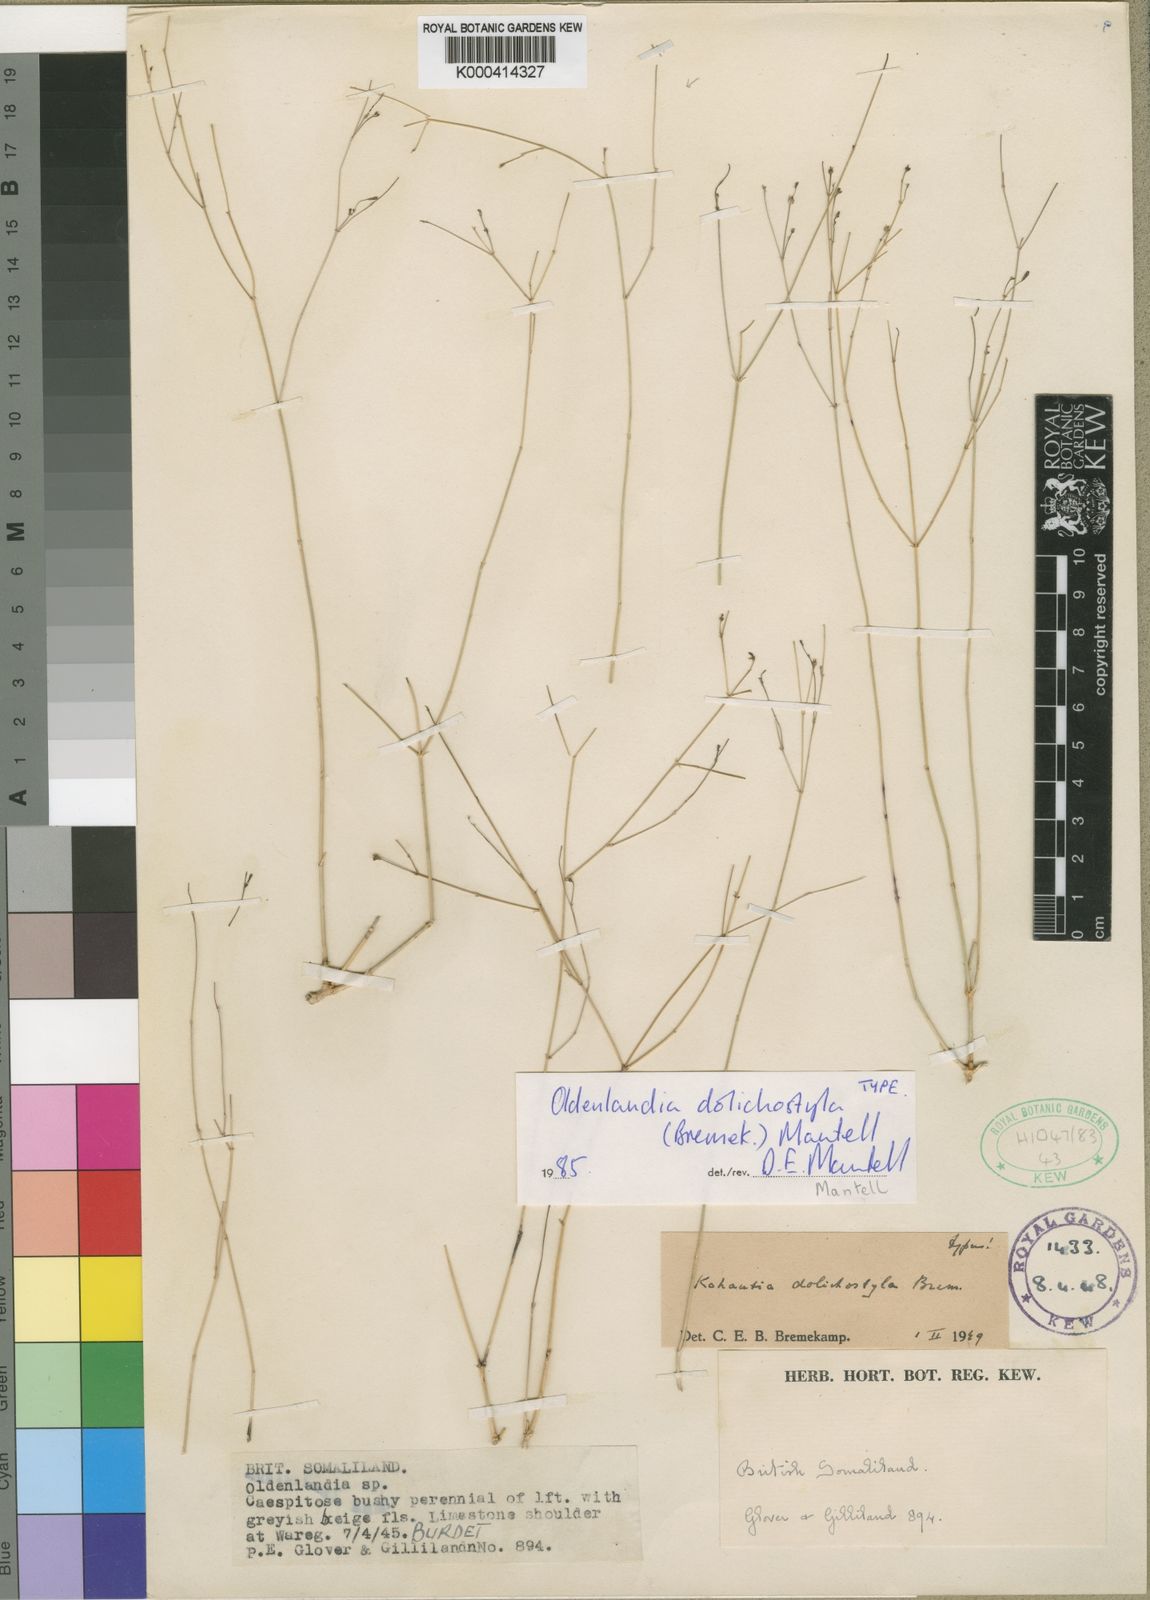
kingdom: Plantae
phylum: Tracheophyta
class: Magnoliopsida
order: Gentianales
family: Rubiaceae
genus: Oldenlandia
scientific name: Oldenlandia
